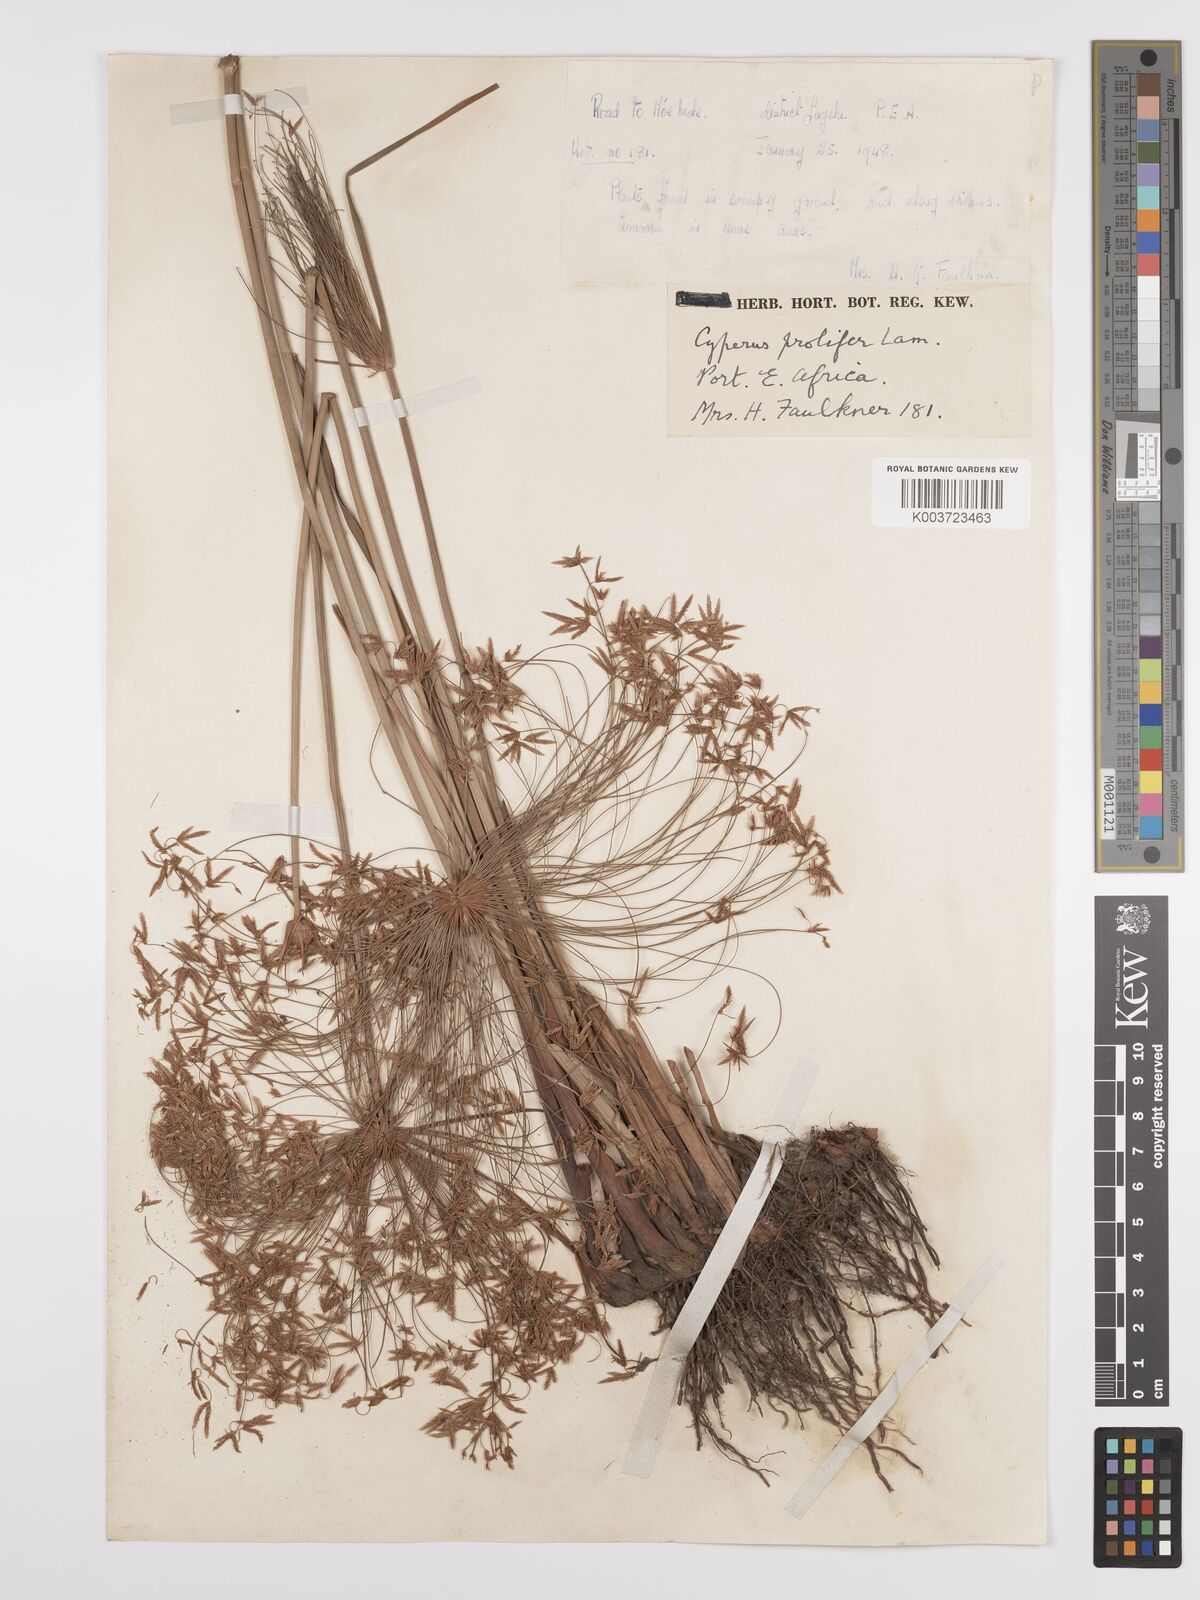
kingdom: Plantae
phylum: Tracheophyta
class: Liliopsida
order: Poales
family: Cyperaceae
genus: Cyperus
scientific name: Cyperus prolifer
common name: Miniature flatsedge
